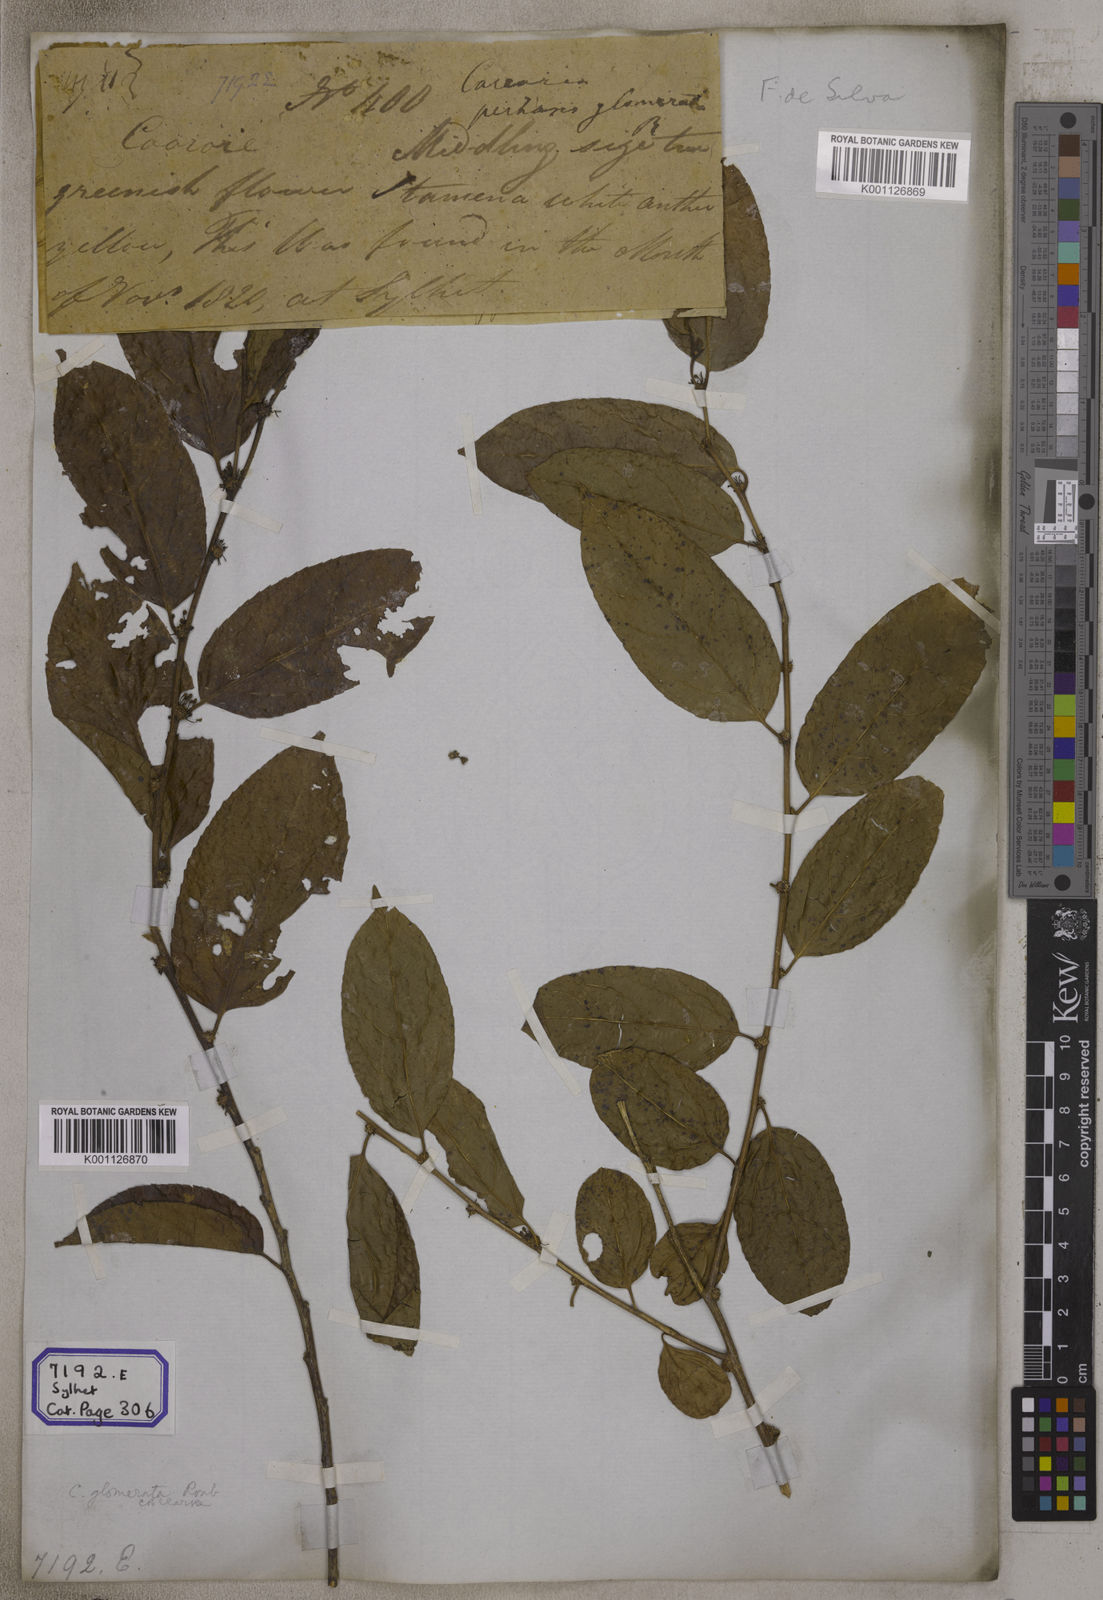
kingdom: Plantae
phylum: Tracheophyta
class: Magnoliopsida
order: Malpighiales
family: Salicaceae
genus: Casearia
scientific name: Casearia
